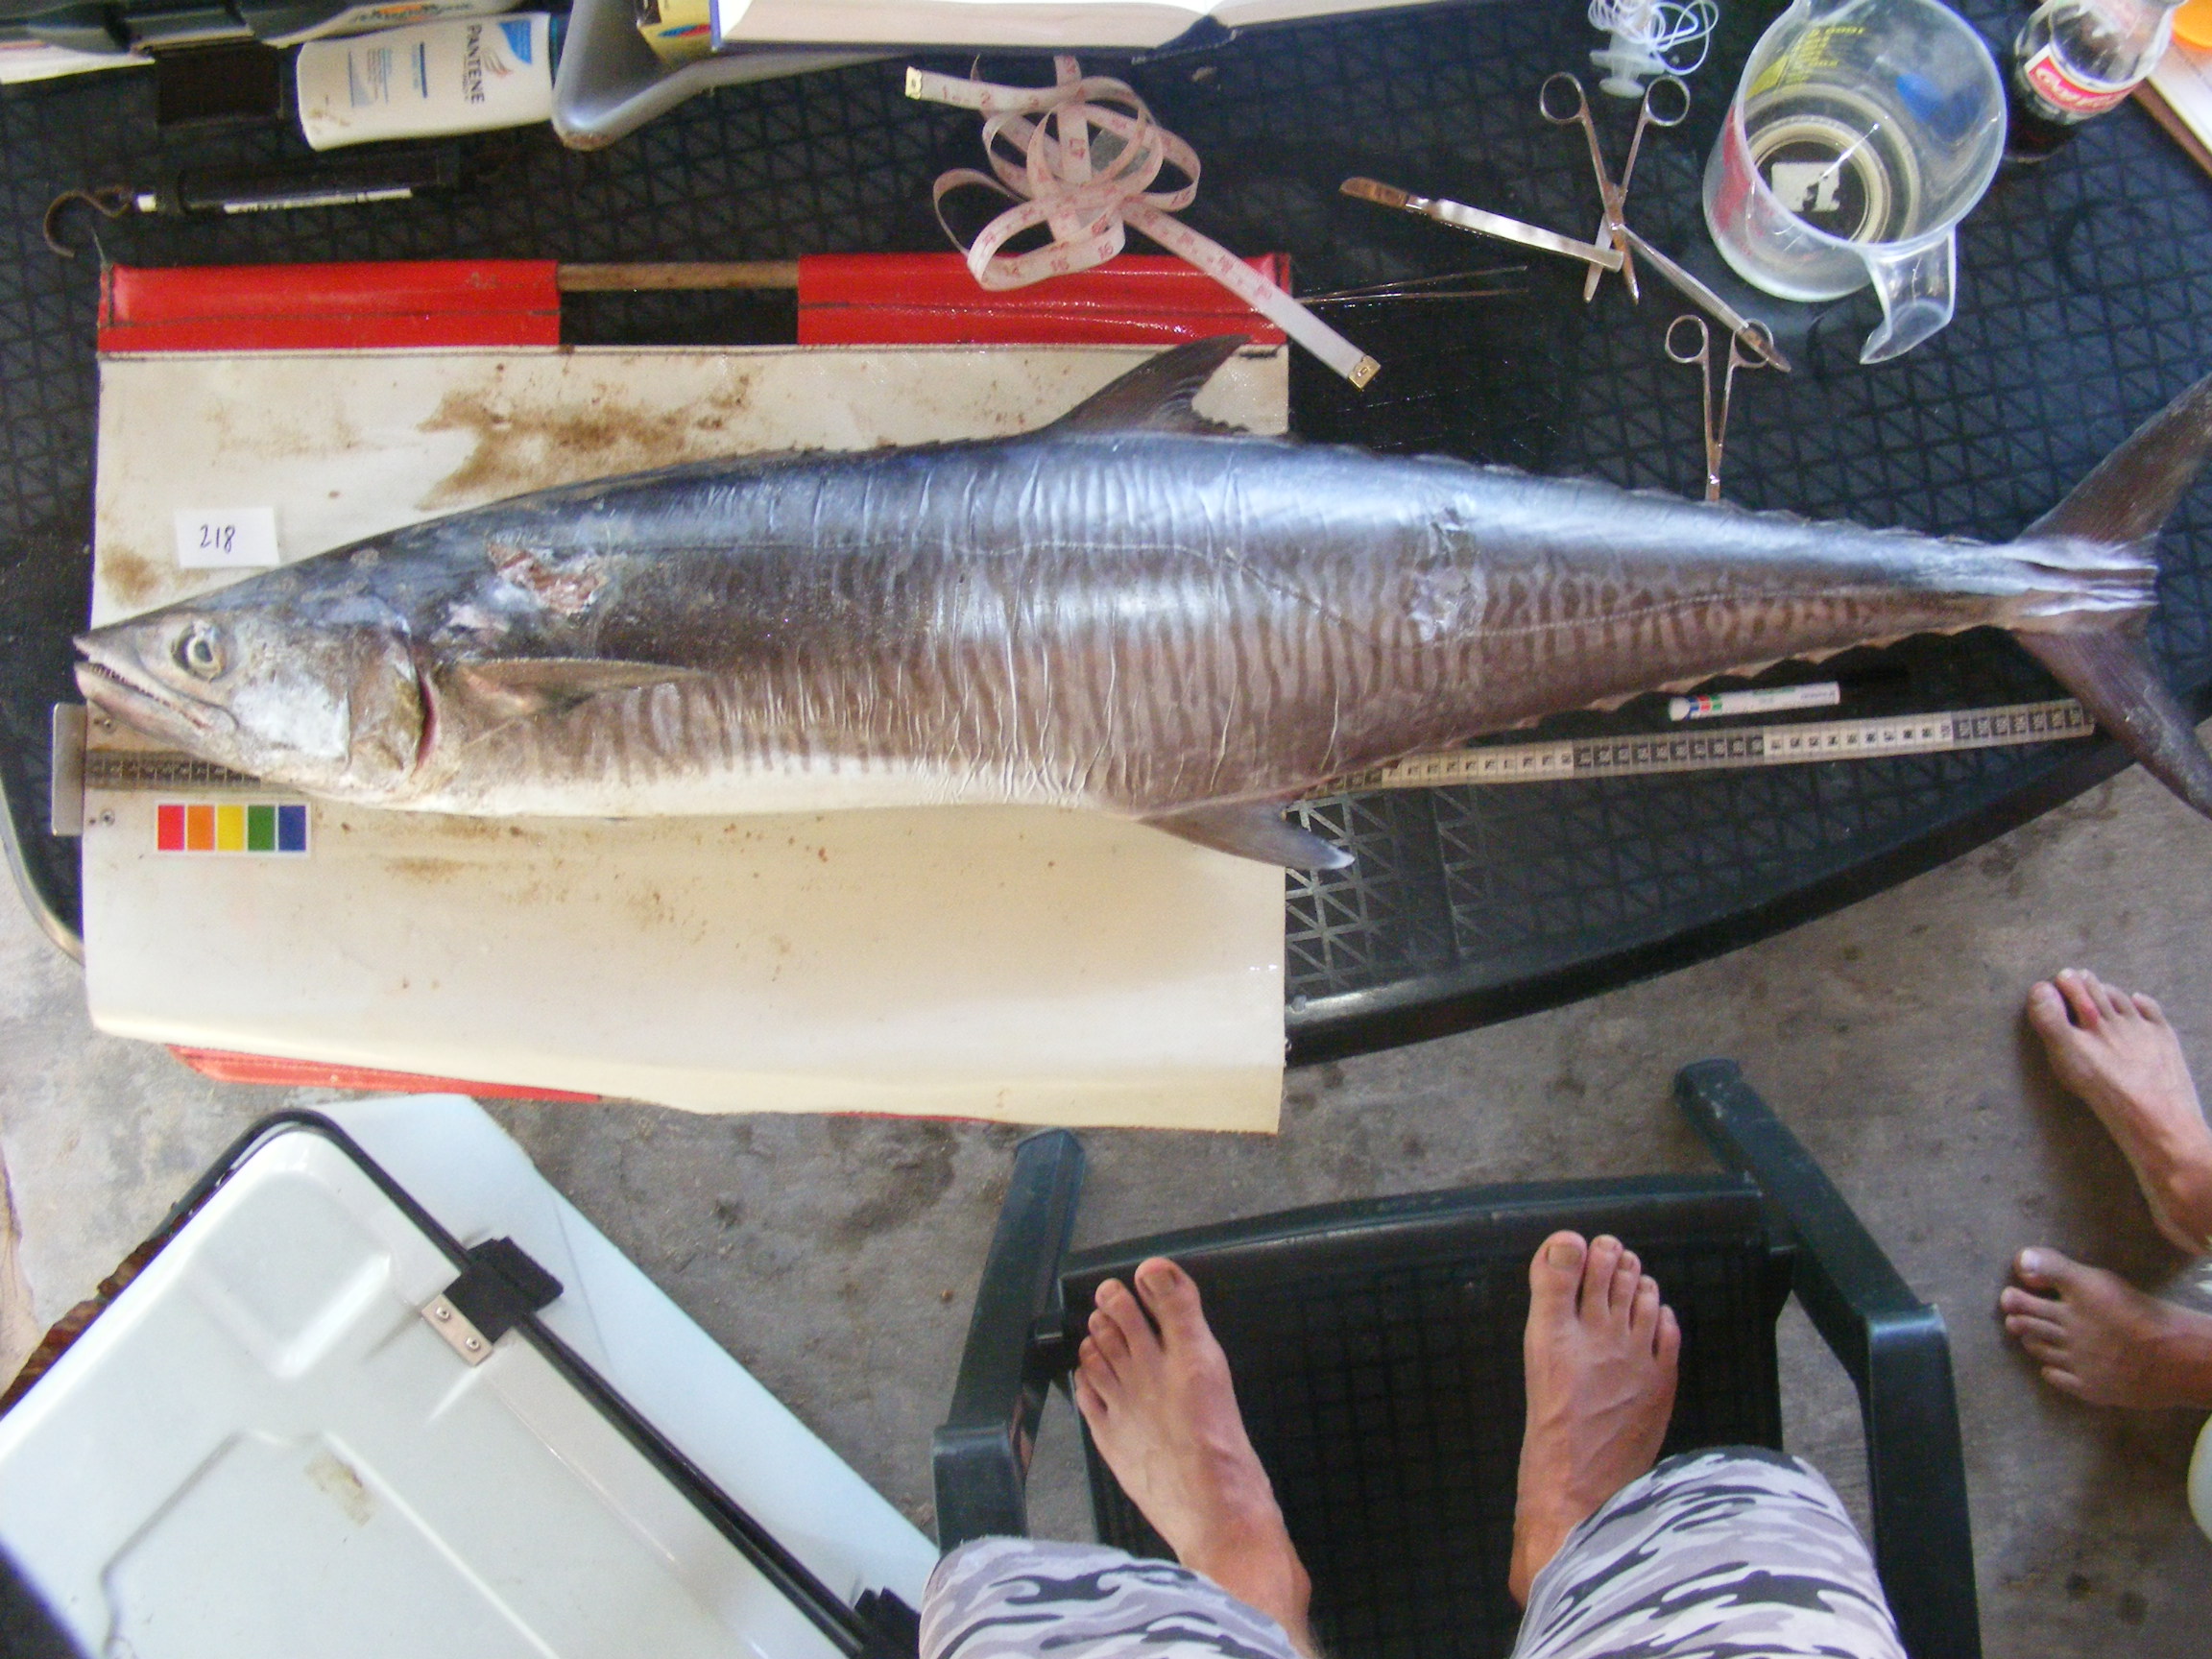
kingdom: Animalia
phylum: Chordata
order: Perciformes
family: Scombridae
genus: Scomberomorus
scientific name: Scomberomorus commerson
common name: Narrow-barred spanish mackerel
